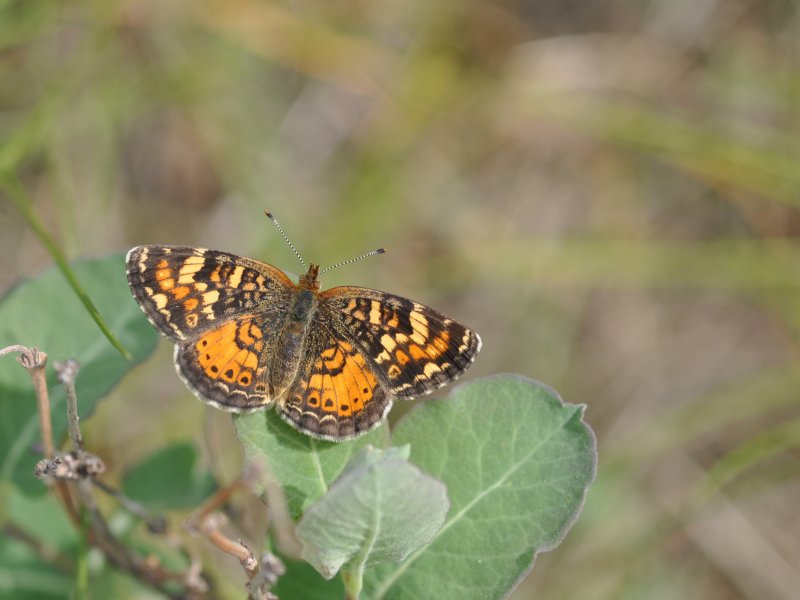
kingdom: Animalia
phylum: Arthropoda
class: Insecta
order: Lepidoptera
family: Nymphalidae
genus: Phyciodes
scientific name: Phyciodes tharos
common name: Northern Crescent
